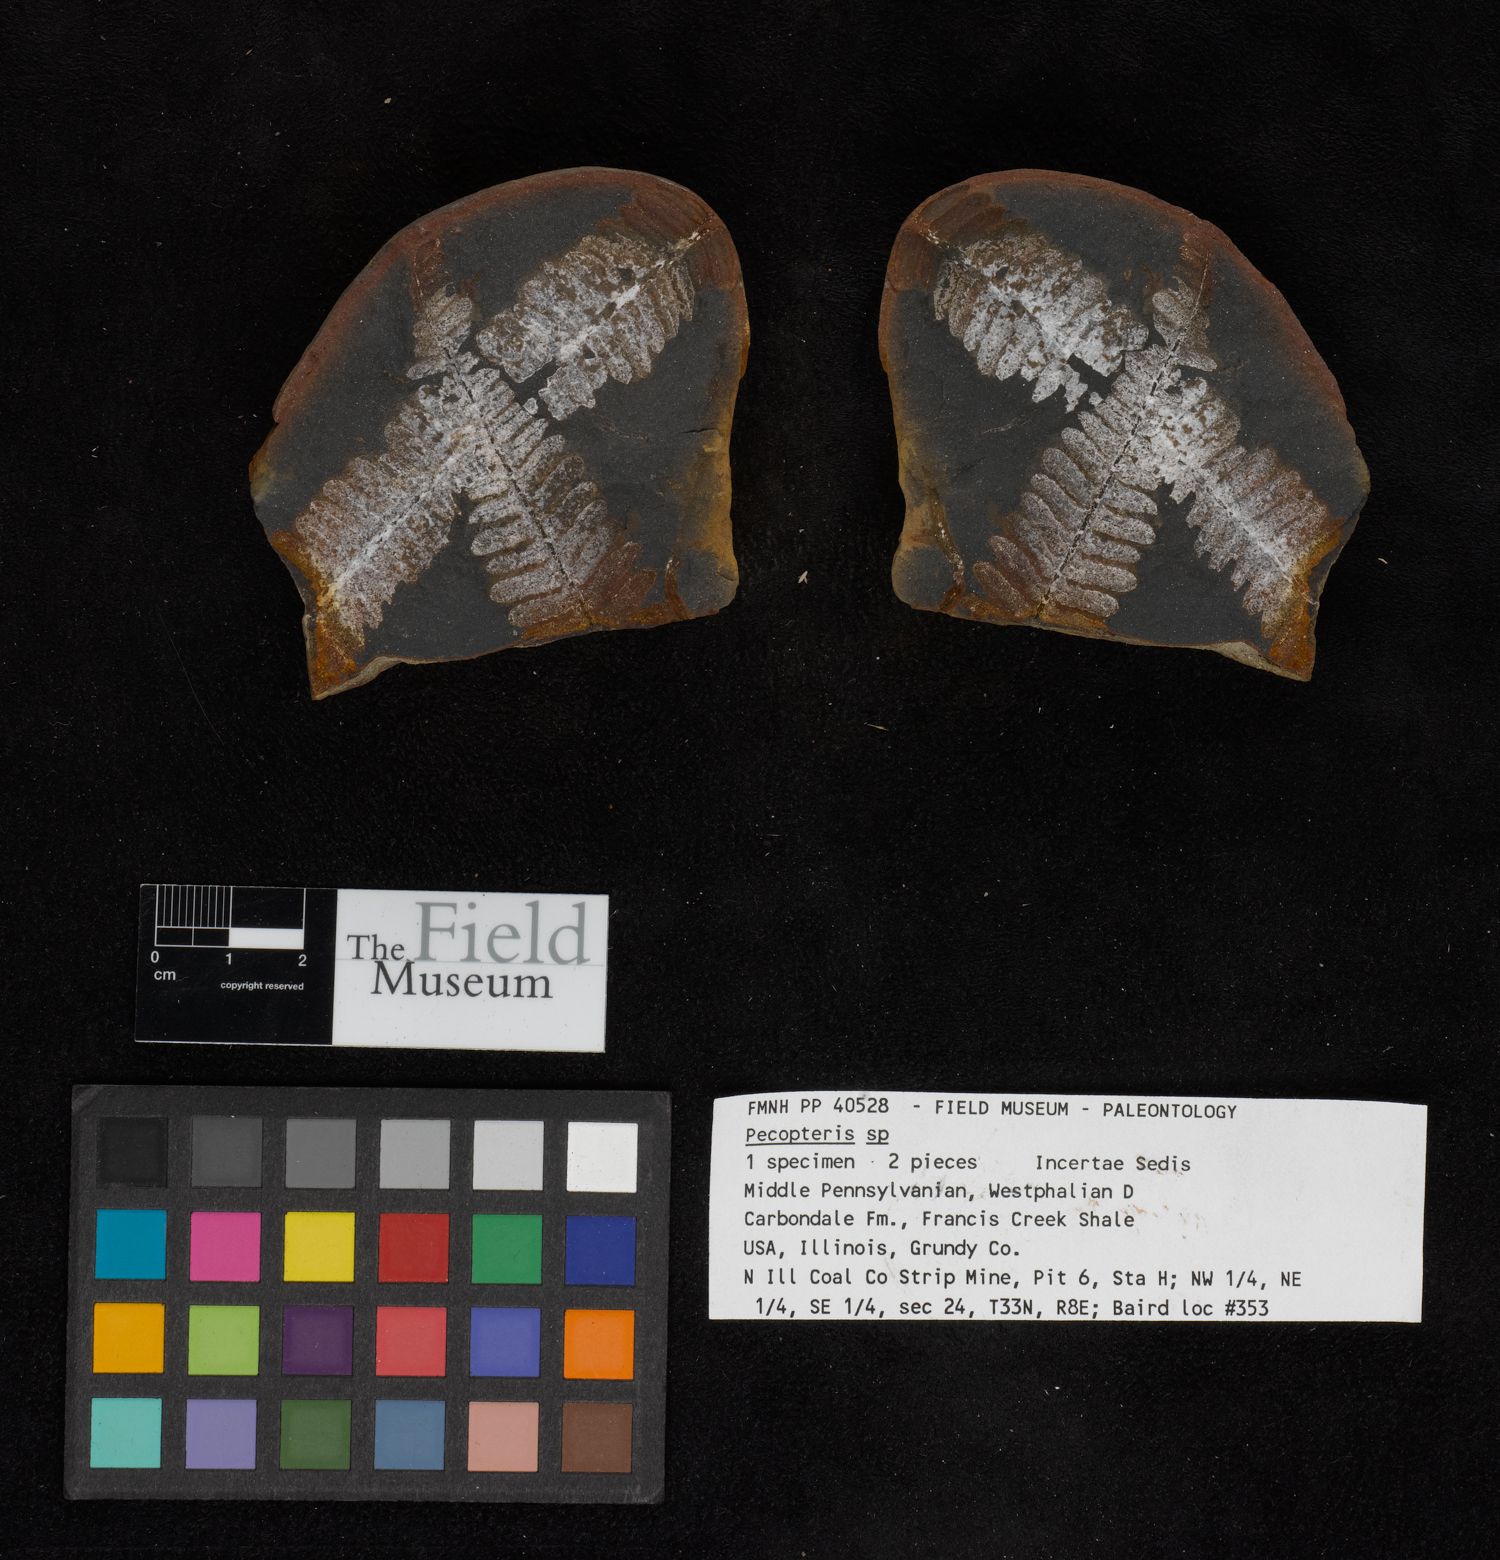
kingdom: Plantae
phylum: Tracheophyta
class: Polypodiopsida
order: Marattiales
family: Asterothecaceae
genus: Pecopteris
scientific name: Pecopteris
